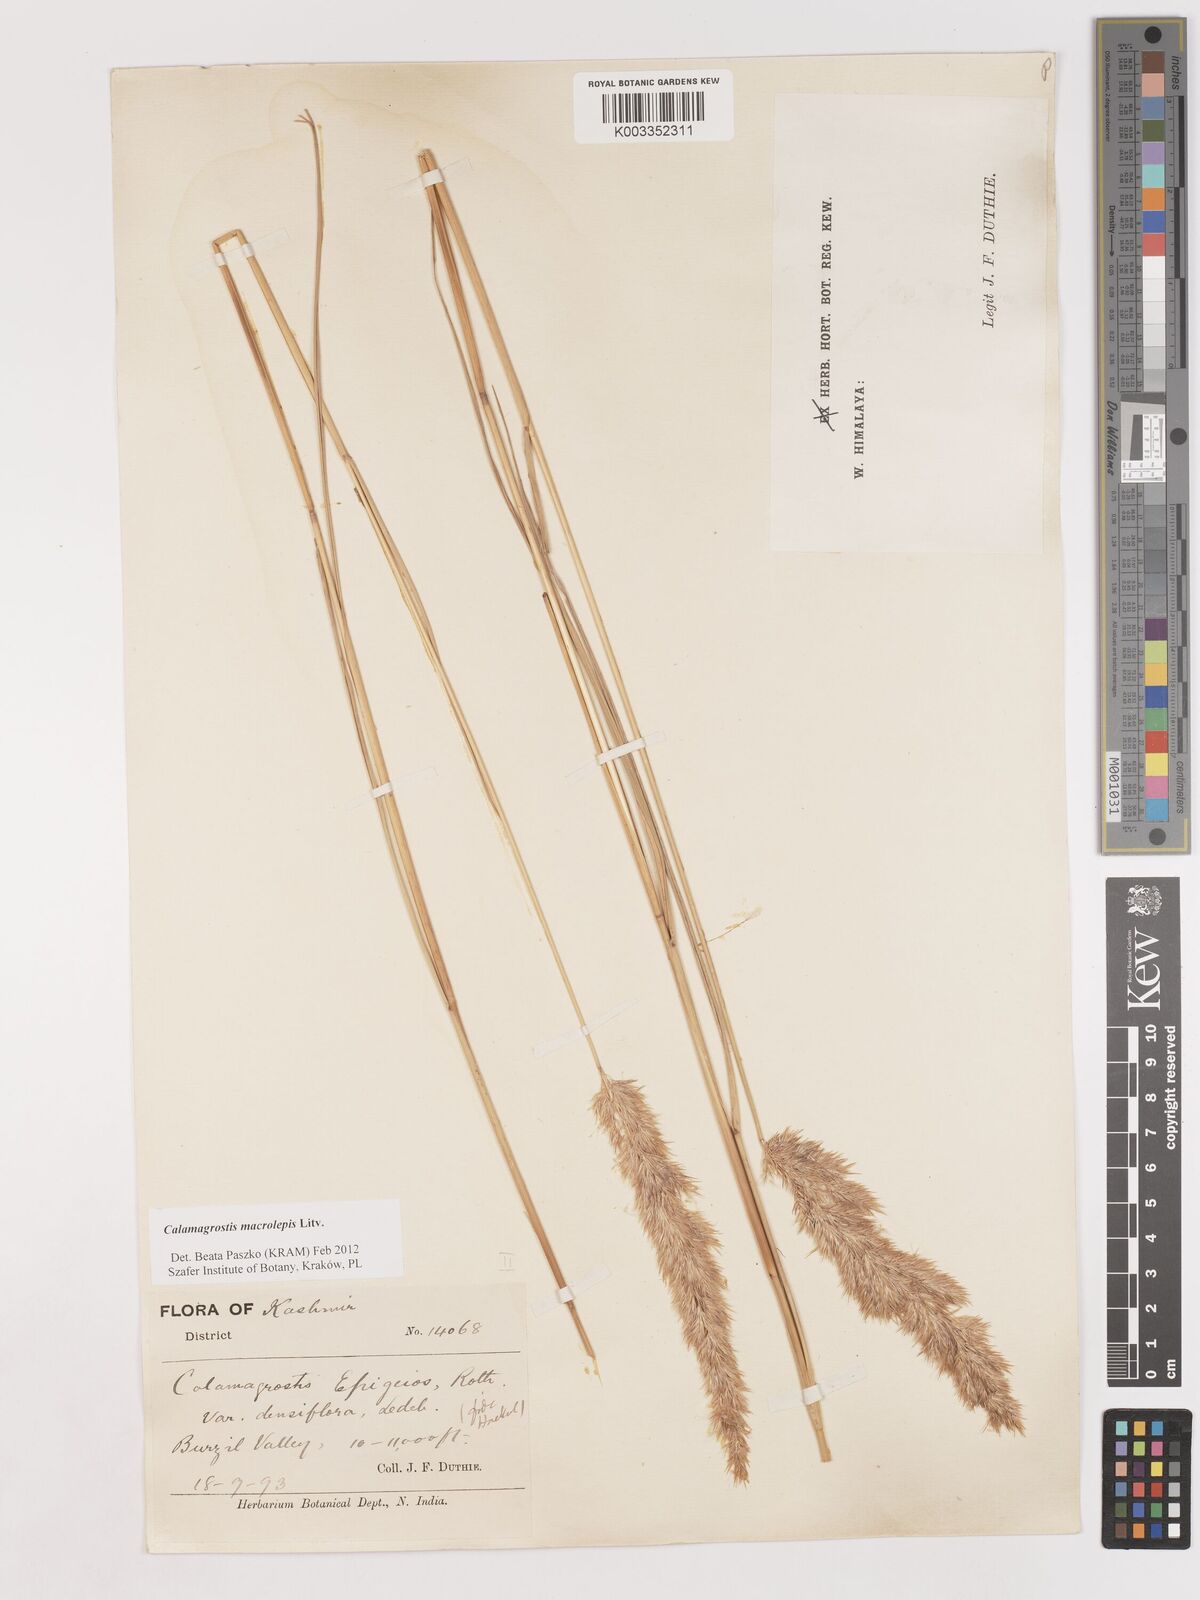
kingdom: Plantae
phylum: Tracheophyta
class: Liliopsida
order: Poales
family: Poaceae
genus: Calamagrostis
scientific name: Calamagrostis epigejos
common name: Wood small-reed
